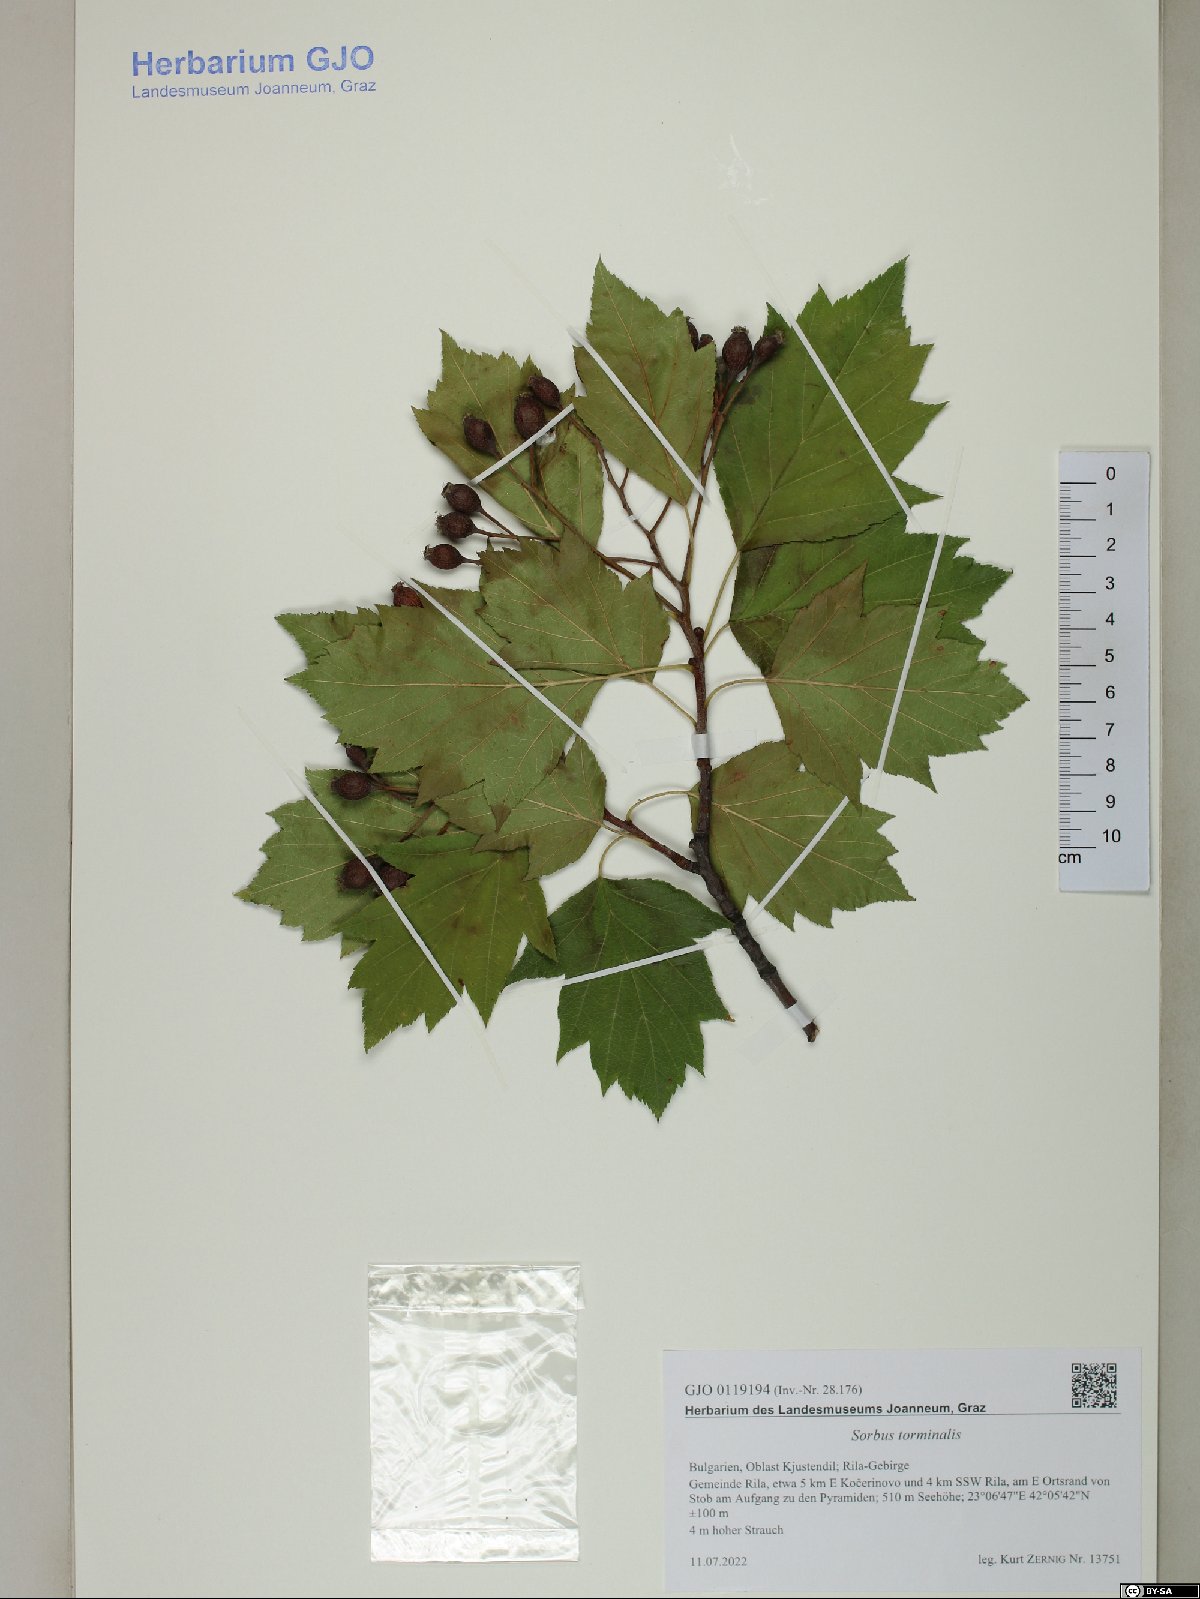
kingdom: Plantae
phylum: Tracheophyta
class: Magnoliopsida
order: Rosales
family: Rosaceae
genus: Torminalis
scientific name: Torminalis glaberrima
